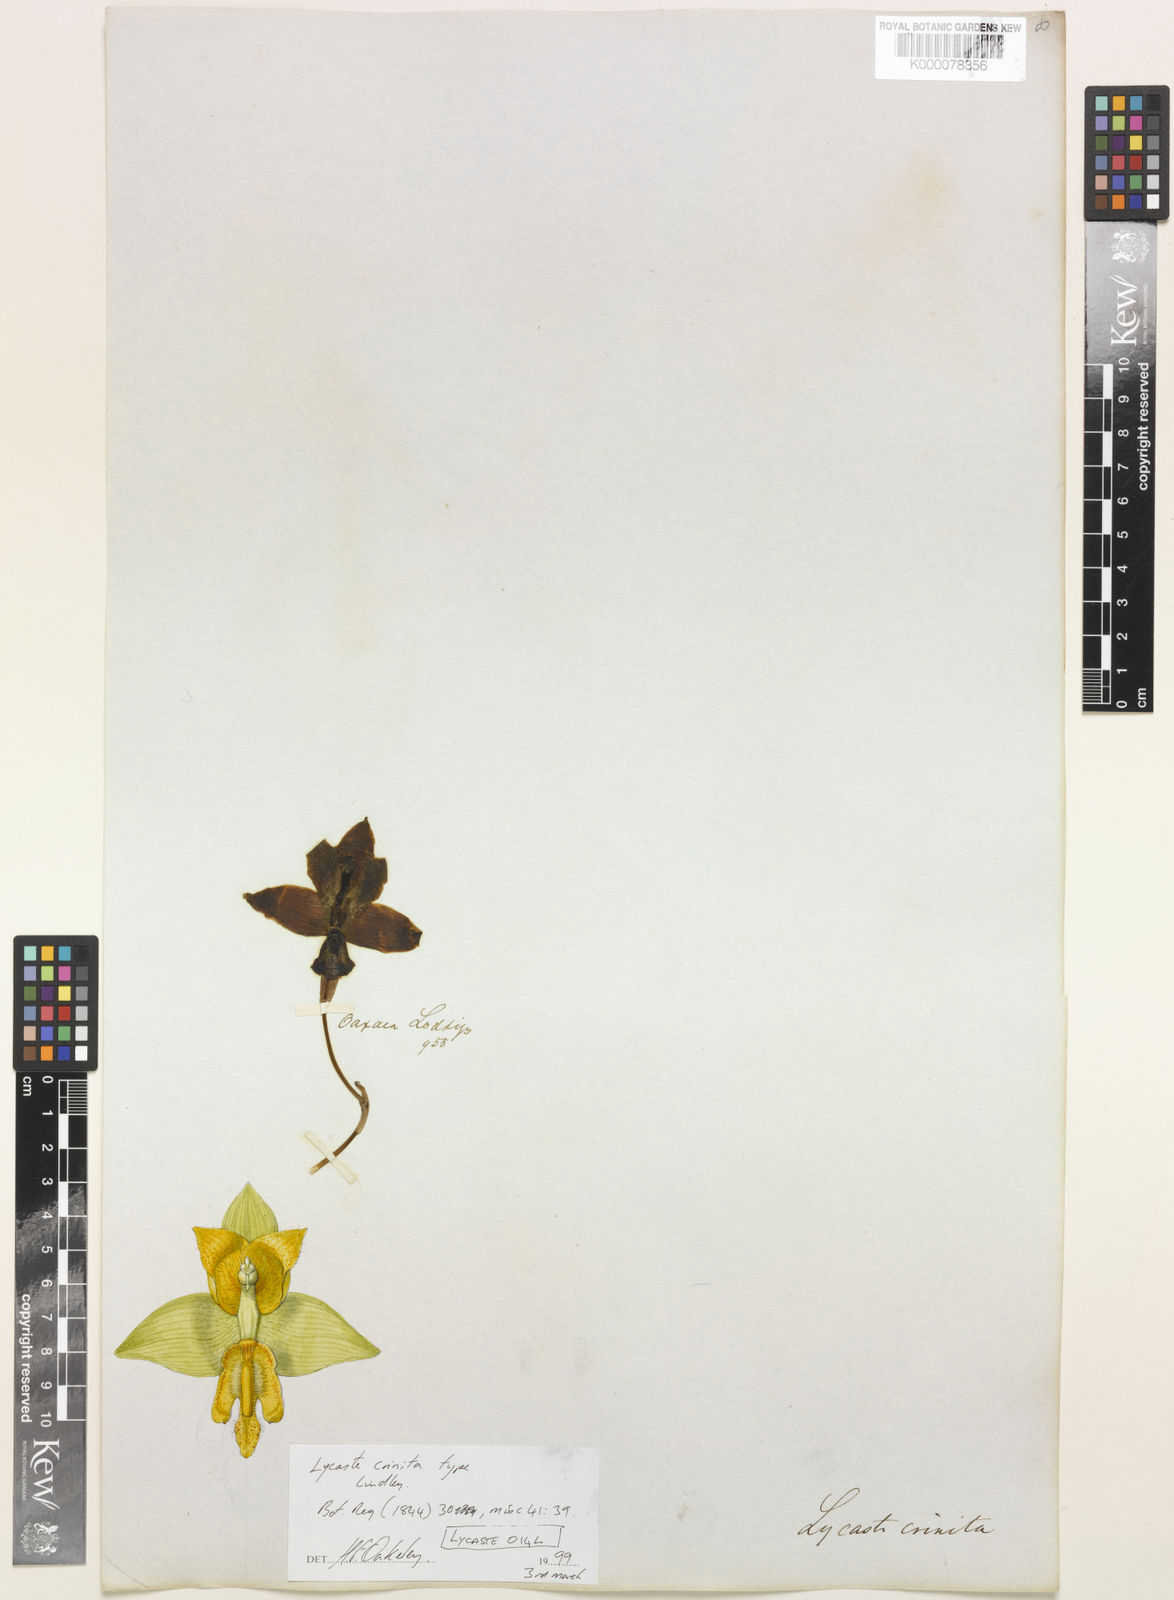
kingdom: Plantae
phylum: Tracheophyta
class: Liliopsida
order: Asparagales
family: Orchidaceae
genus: Lycaste
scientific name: Lycaste crinita
